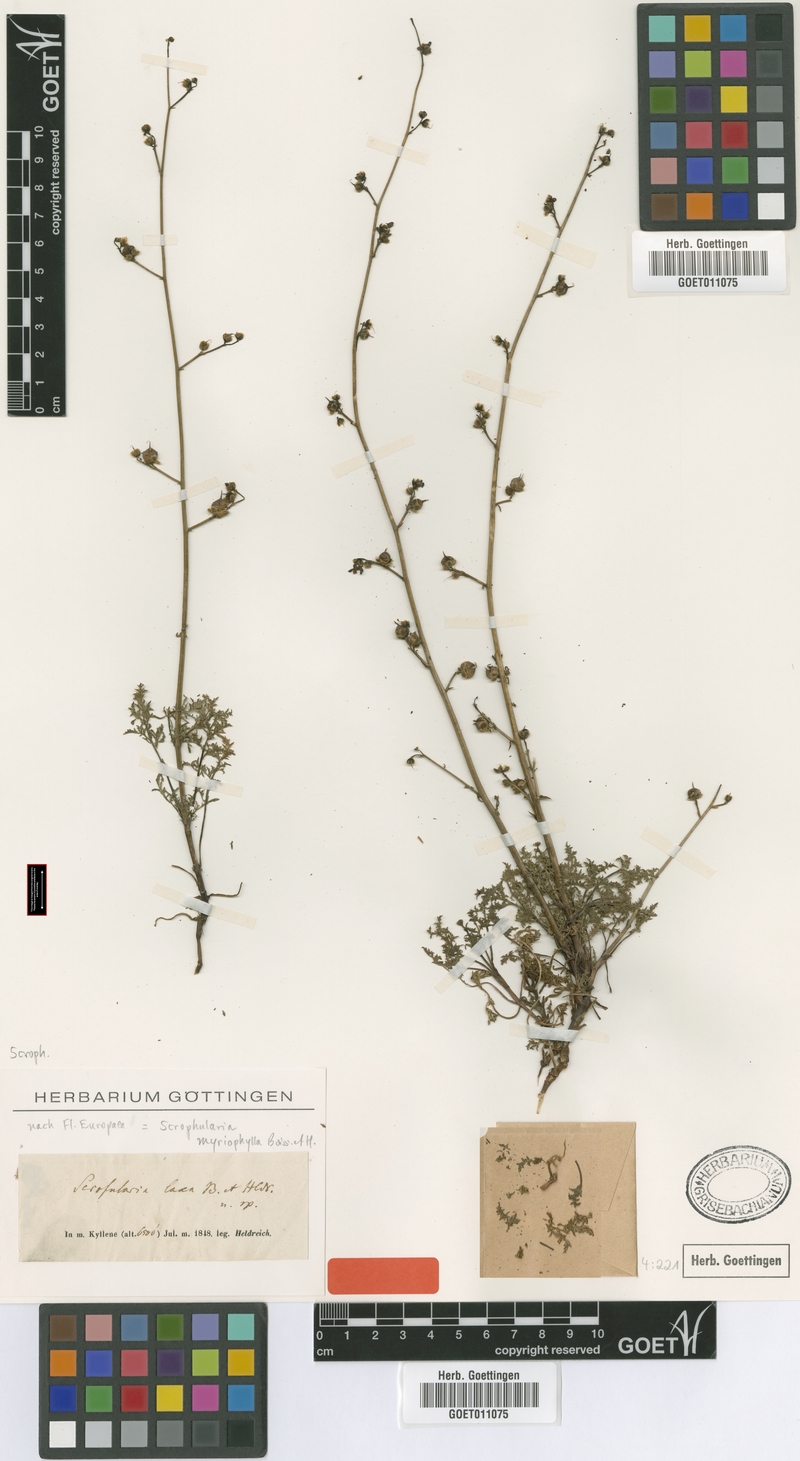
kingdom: Plantae
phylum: Tracheophyta
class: Magnoliopsida
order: Lamiales
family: Scrophulariaceae
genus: Scrophularia
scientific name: Scrophularia myriophylla
